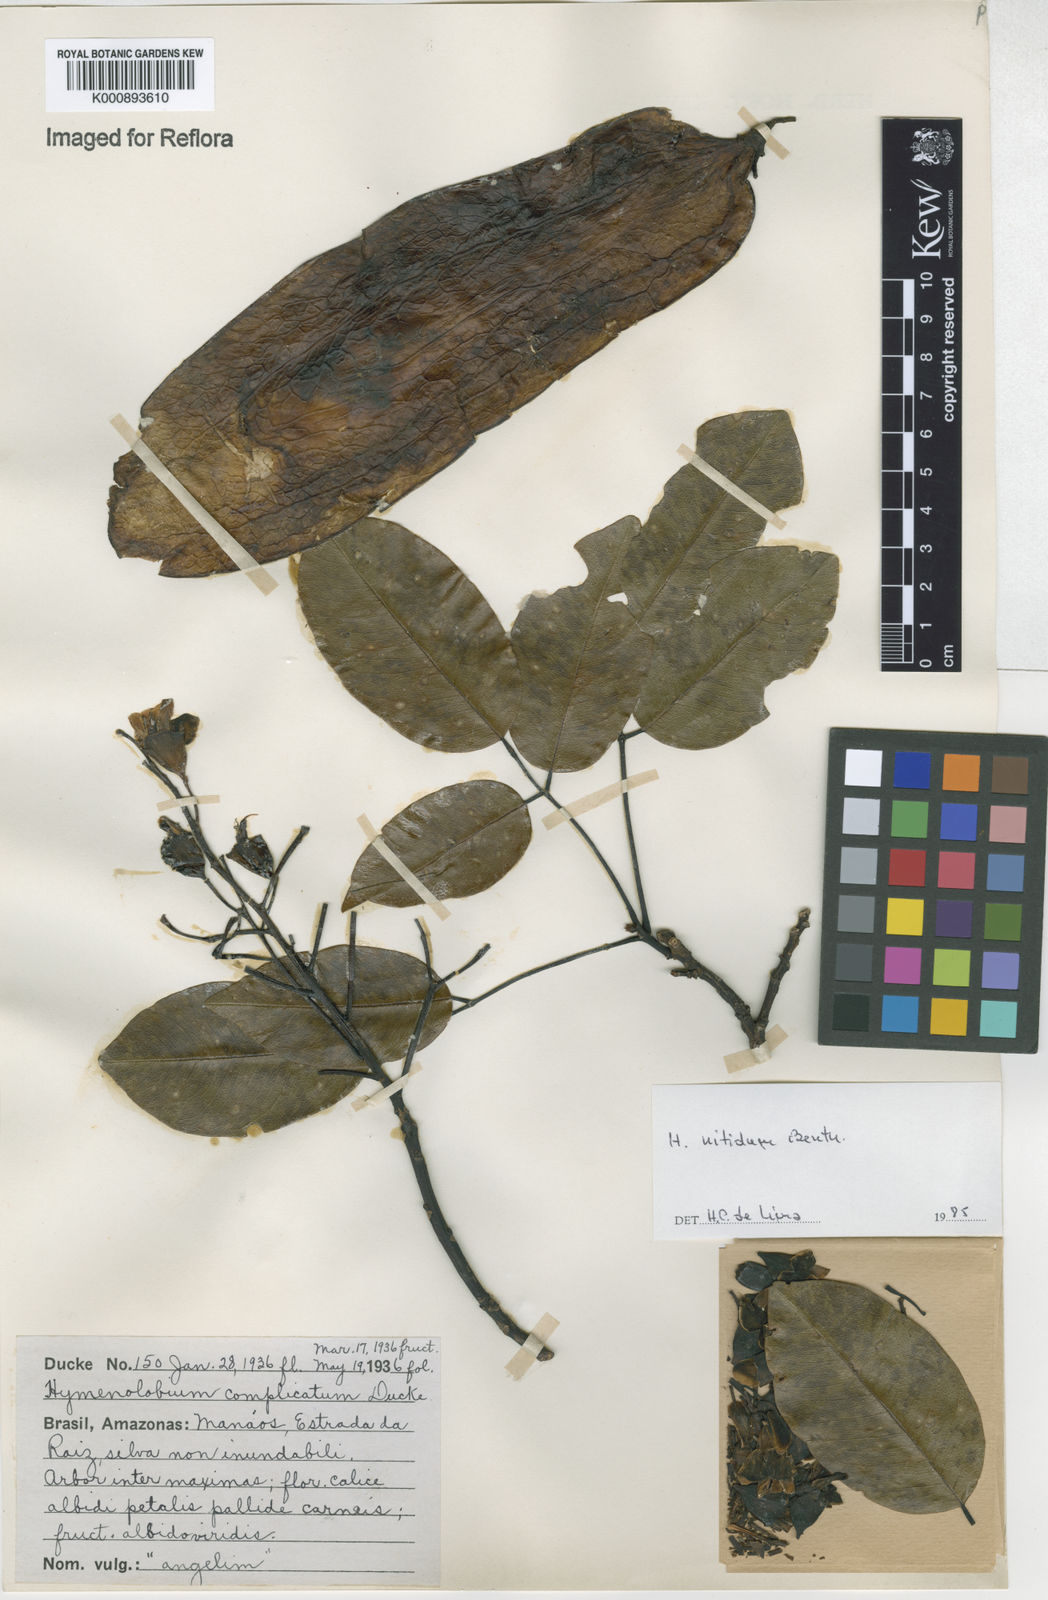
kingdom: Plantae
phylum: Tracheophyta
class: Magnoliopsida
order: Fabales
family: Fabaceae
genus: Hymenolobium
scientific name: Hymenolobium nitidum
